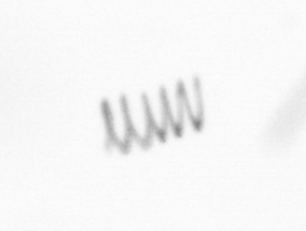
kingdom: Chromista
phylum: Ochrophyta
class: Bacillariophyceae
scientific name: Bacillariophyceae
